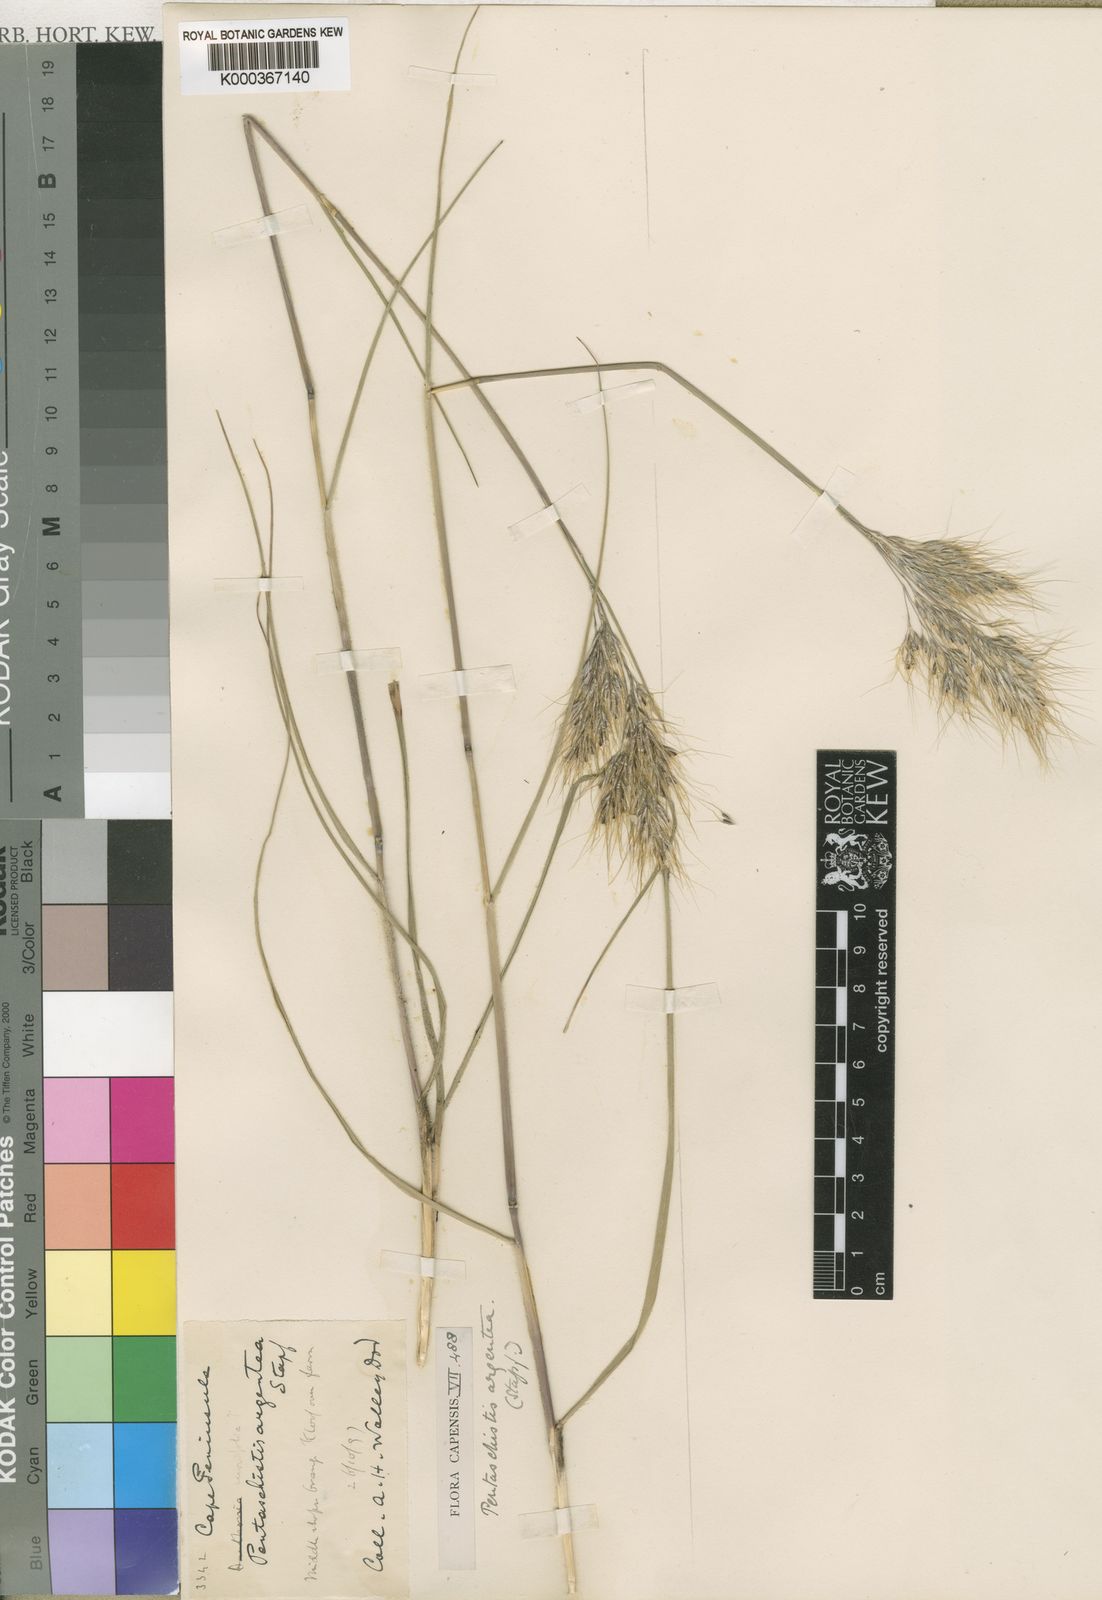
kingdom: Plantae
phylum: Tracheophyta
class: Liliopsida
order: Poales
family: Poaceae
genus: Pentameris
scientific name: Pentameris argentea
